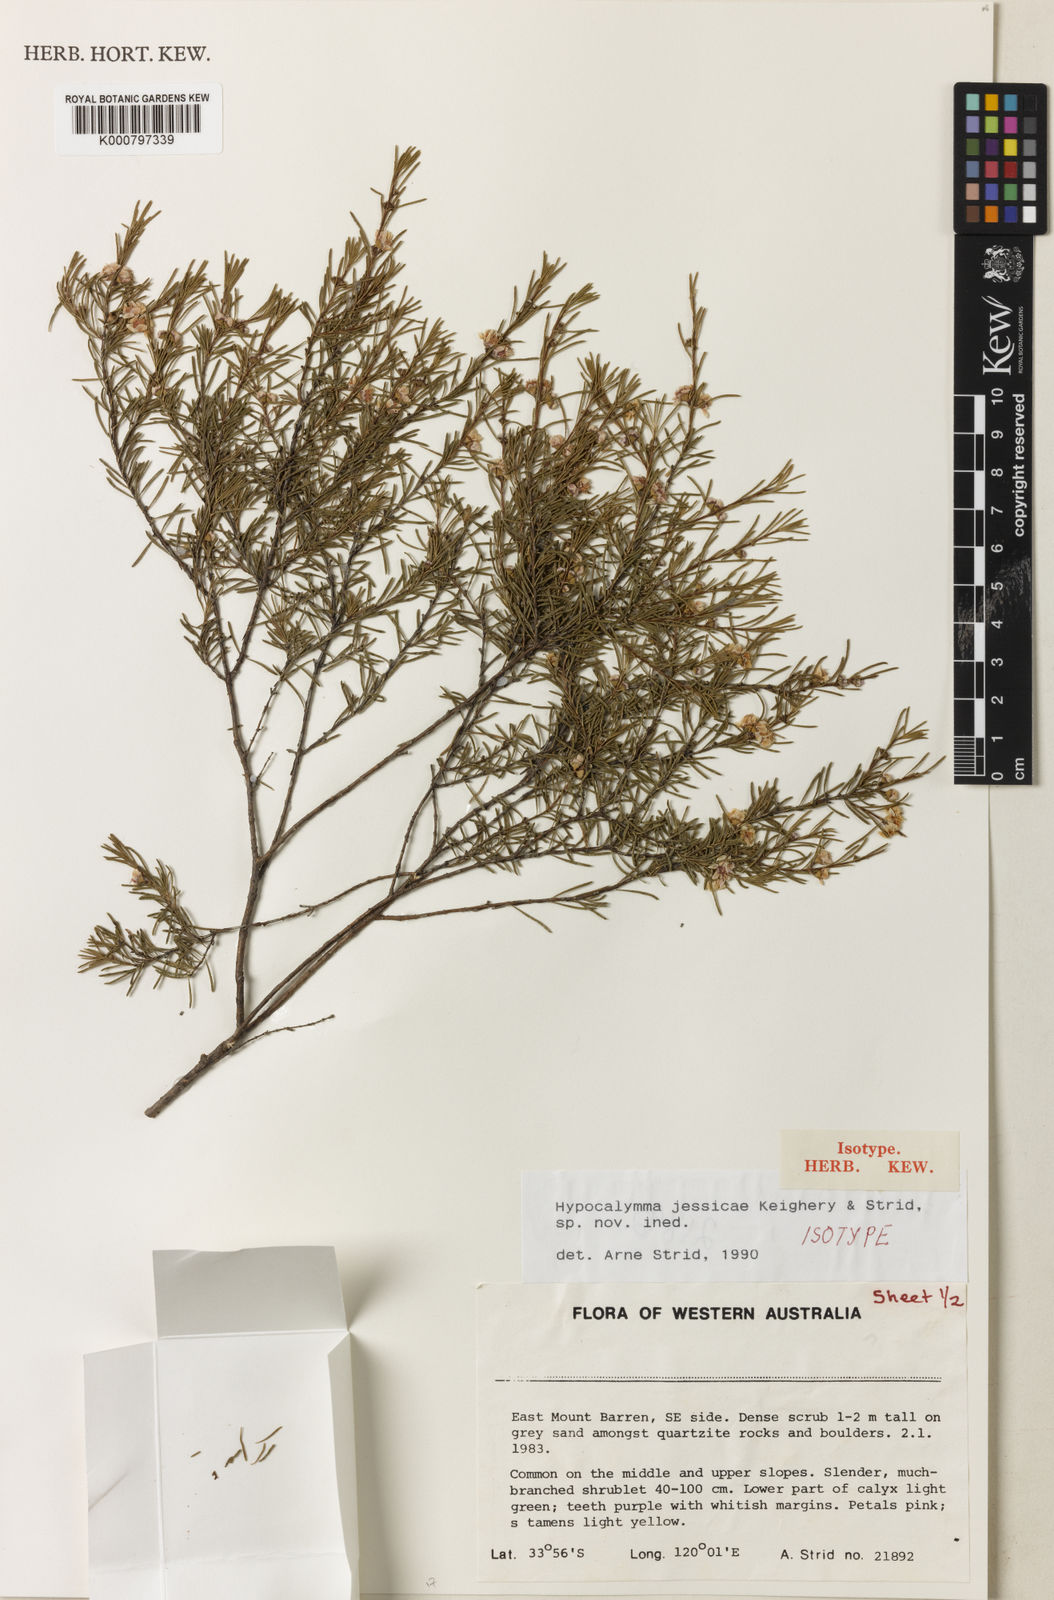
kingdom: Plantae
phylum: Tracheophyta
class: Magnoliopsida
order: Myrtales
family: Myrtaceae
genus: Hypocalymma
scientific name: Hypocalymma jessicae
